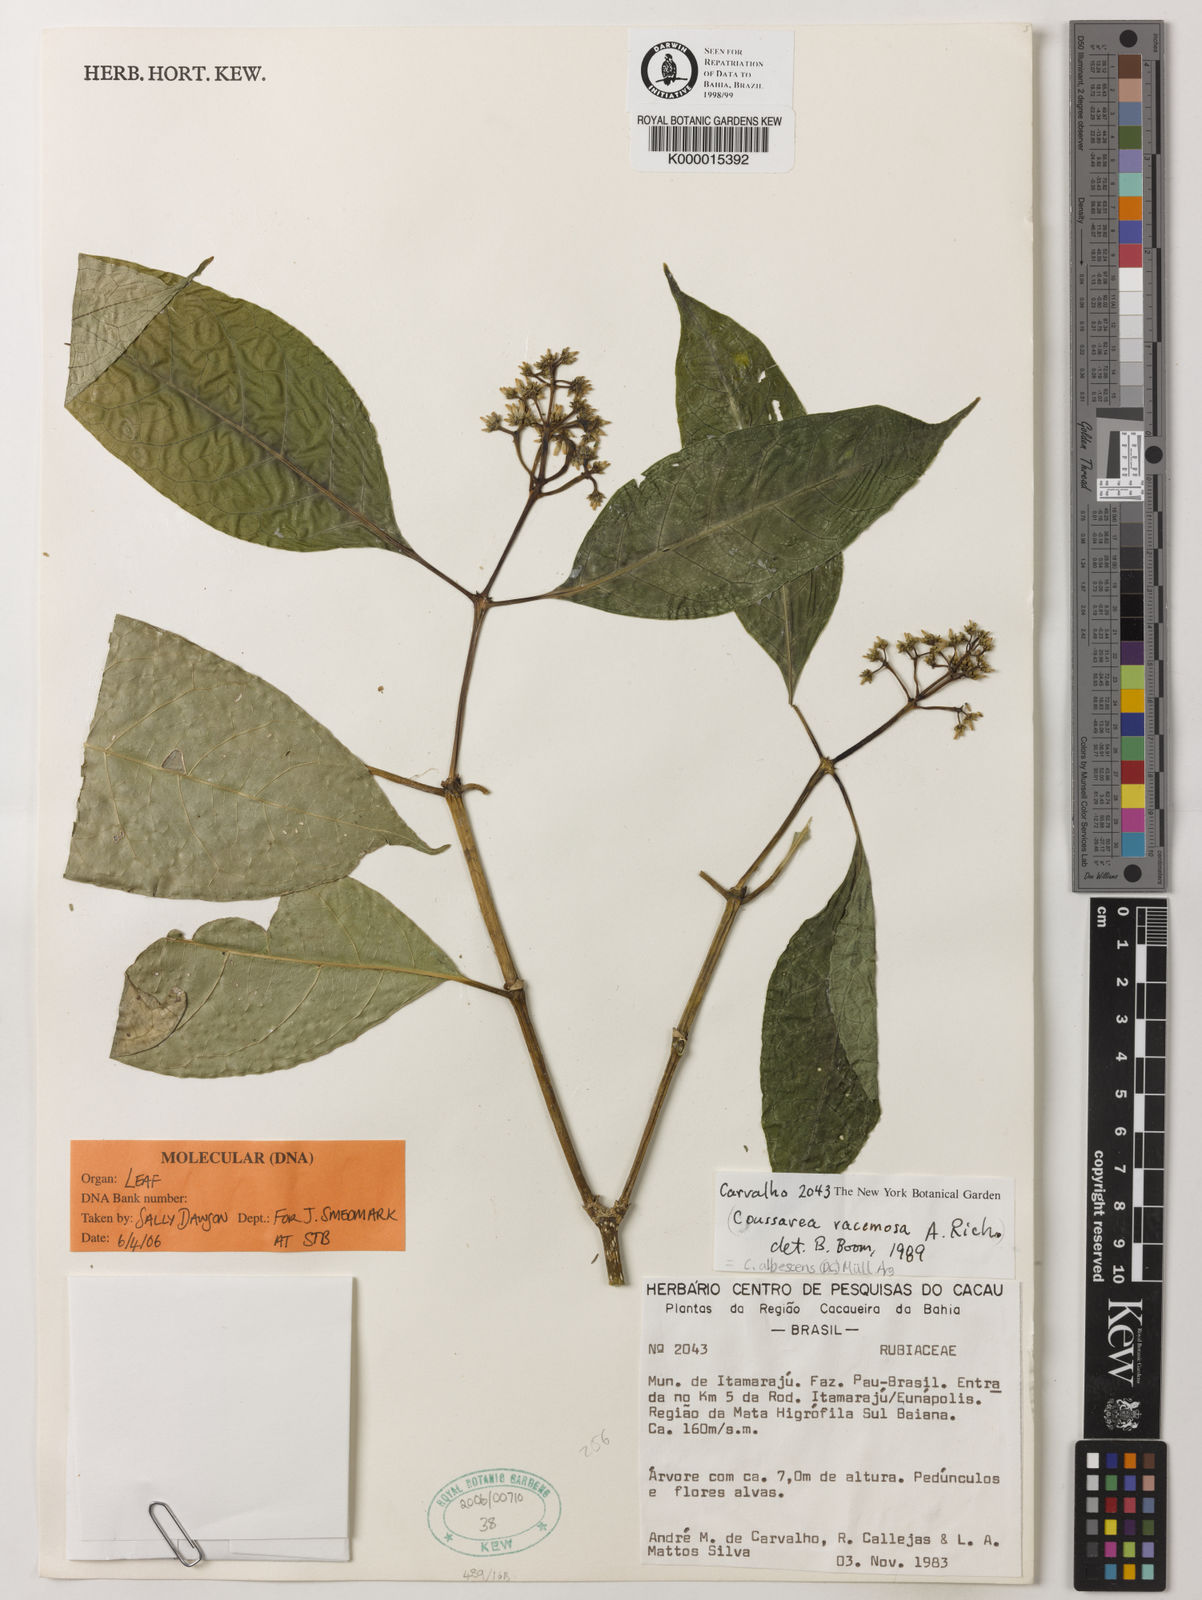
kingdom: Plantae
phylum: Tracheophyta
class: Magnoliopsida
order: Gentianales
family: Rubiaceae
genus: Coussarea
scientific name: Coussarea
